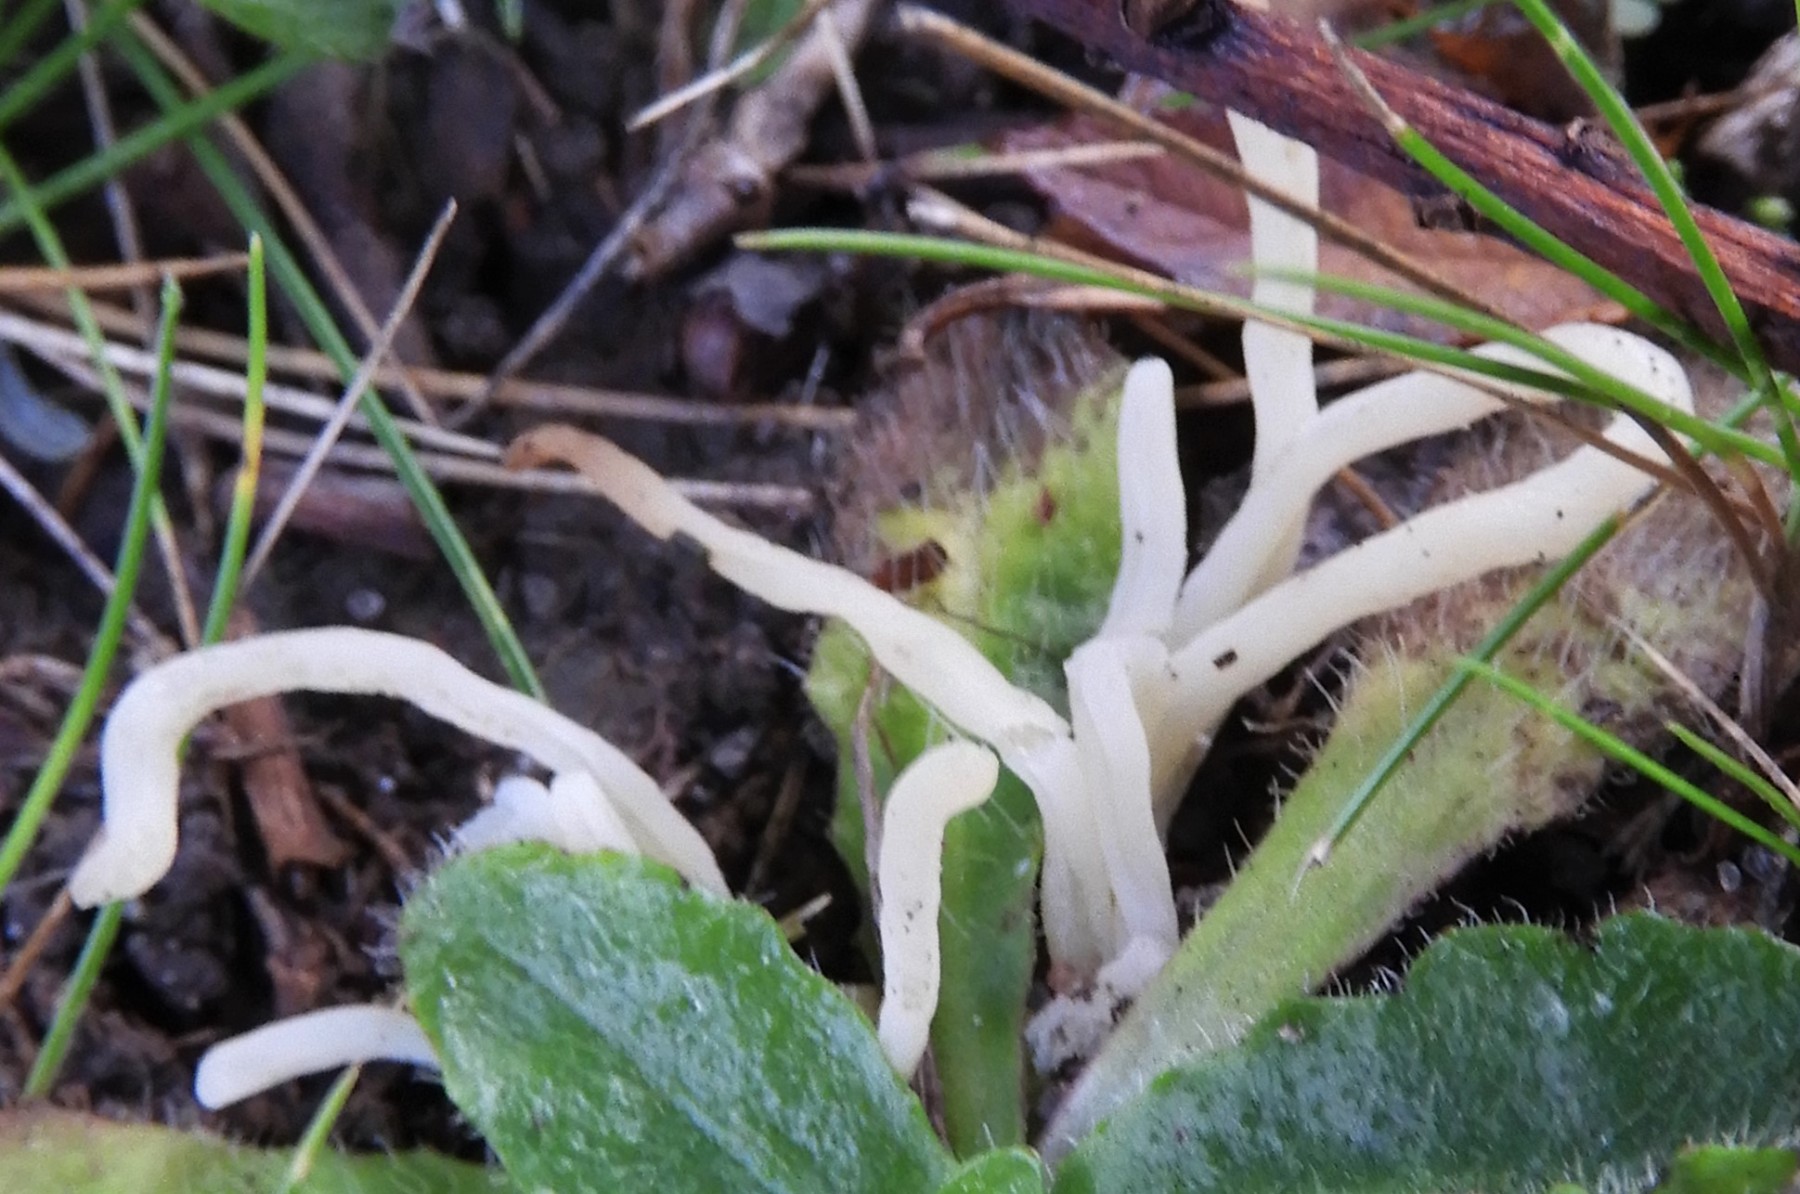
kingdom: Fungi
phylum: Basidiomycota
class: Agaricomycetes
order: Agaricales
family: Clavariaceae
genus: Clavaria
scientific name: Clavaria falcata
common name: hvid køllesvamp
